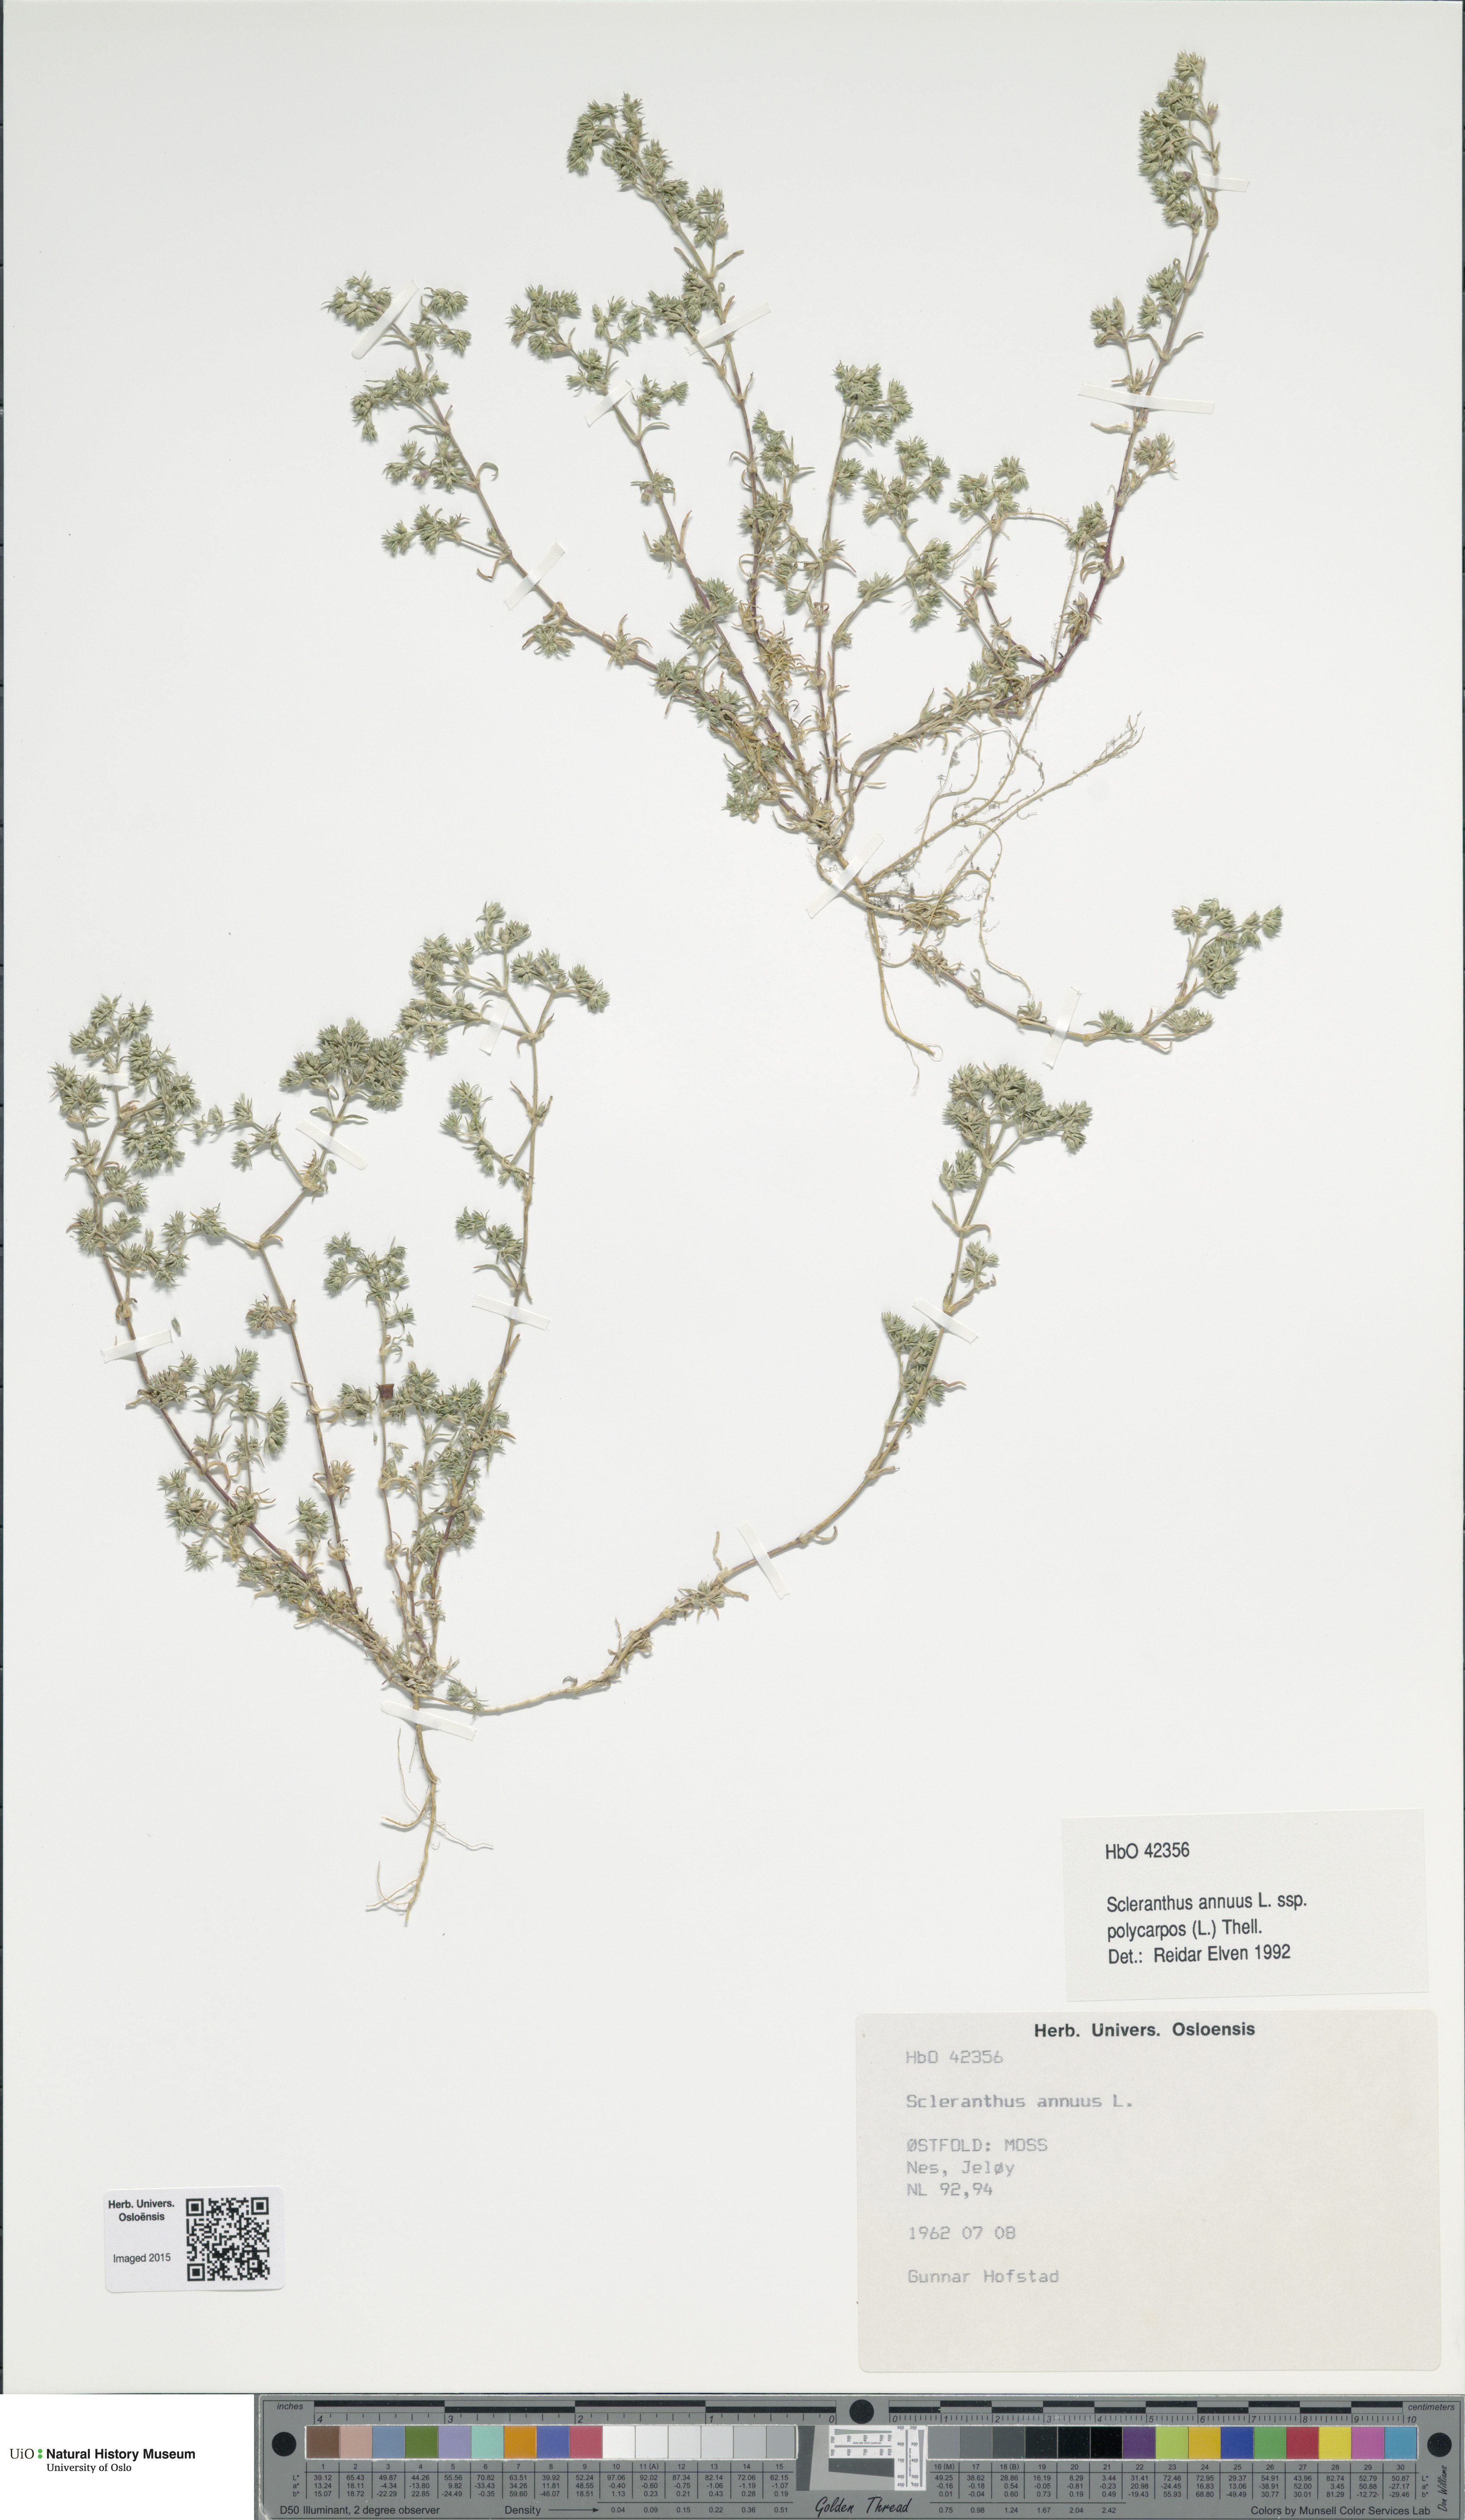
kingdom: Plantae
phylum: Tracheophyta
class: Magnoliopsida
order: Caryophyllales
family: Caryophyllaceae
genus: Scleranthus
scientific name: Scleranthus annuus
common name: Annual knawel
